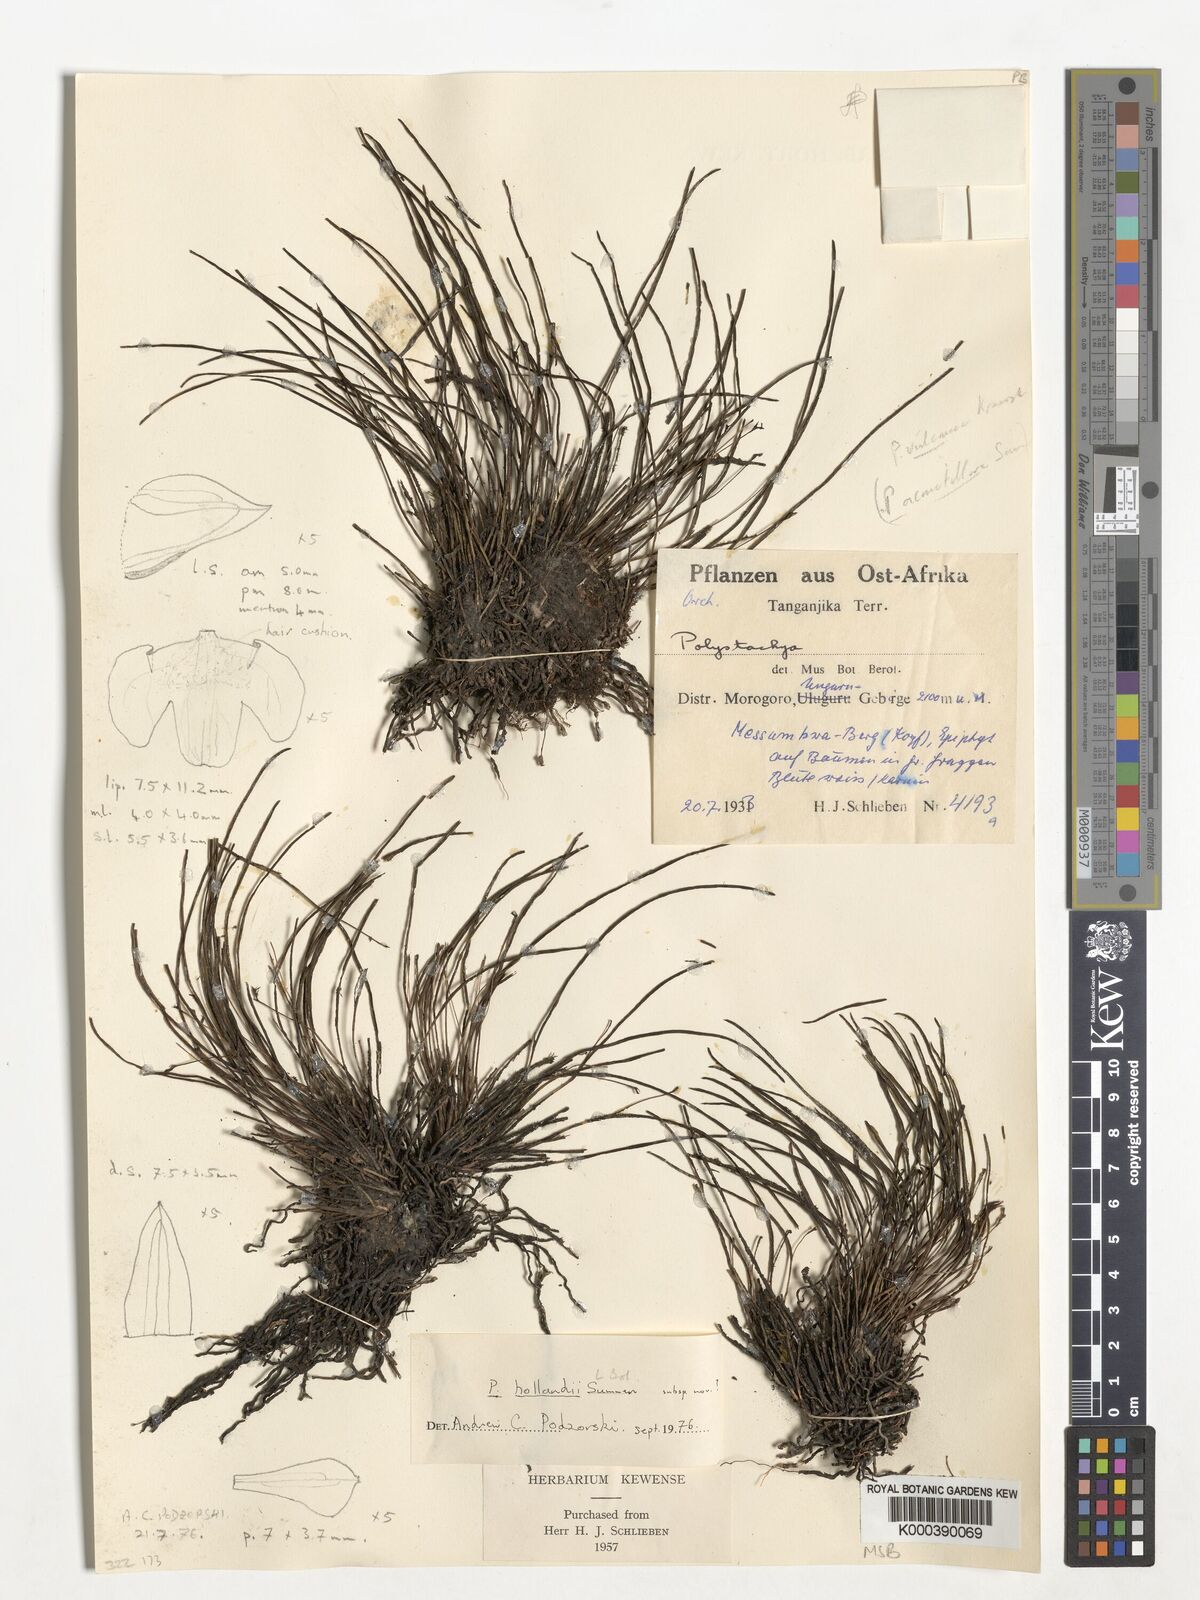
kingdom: Plantae
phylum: Tracheophyta
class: Liliopsida
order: Asparagales
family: Orchidaceae
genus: Polystachya
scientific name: Polystachya caespitifica
